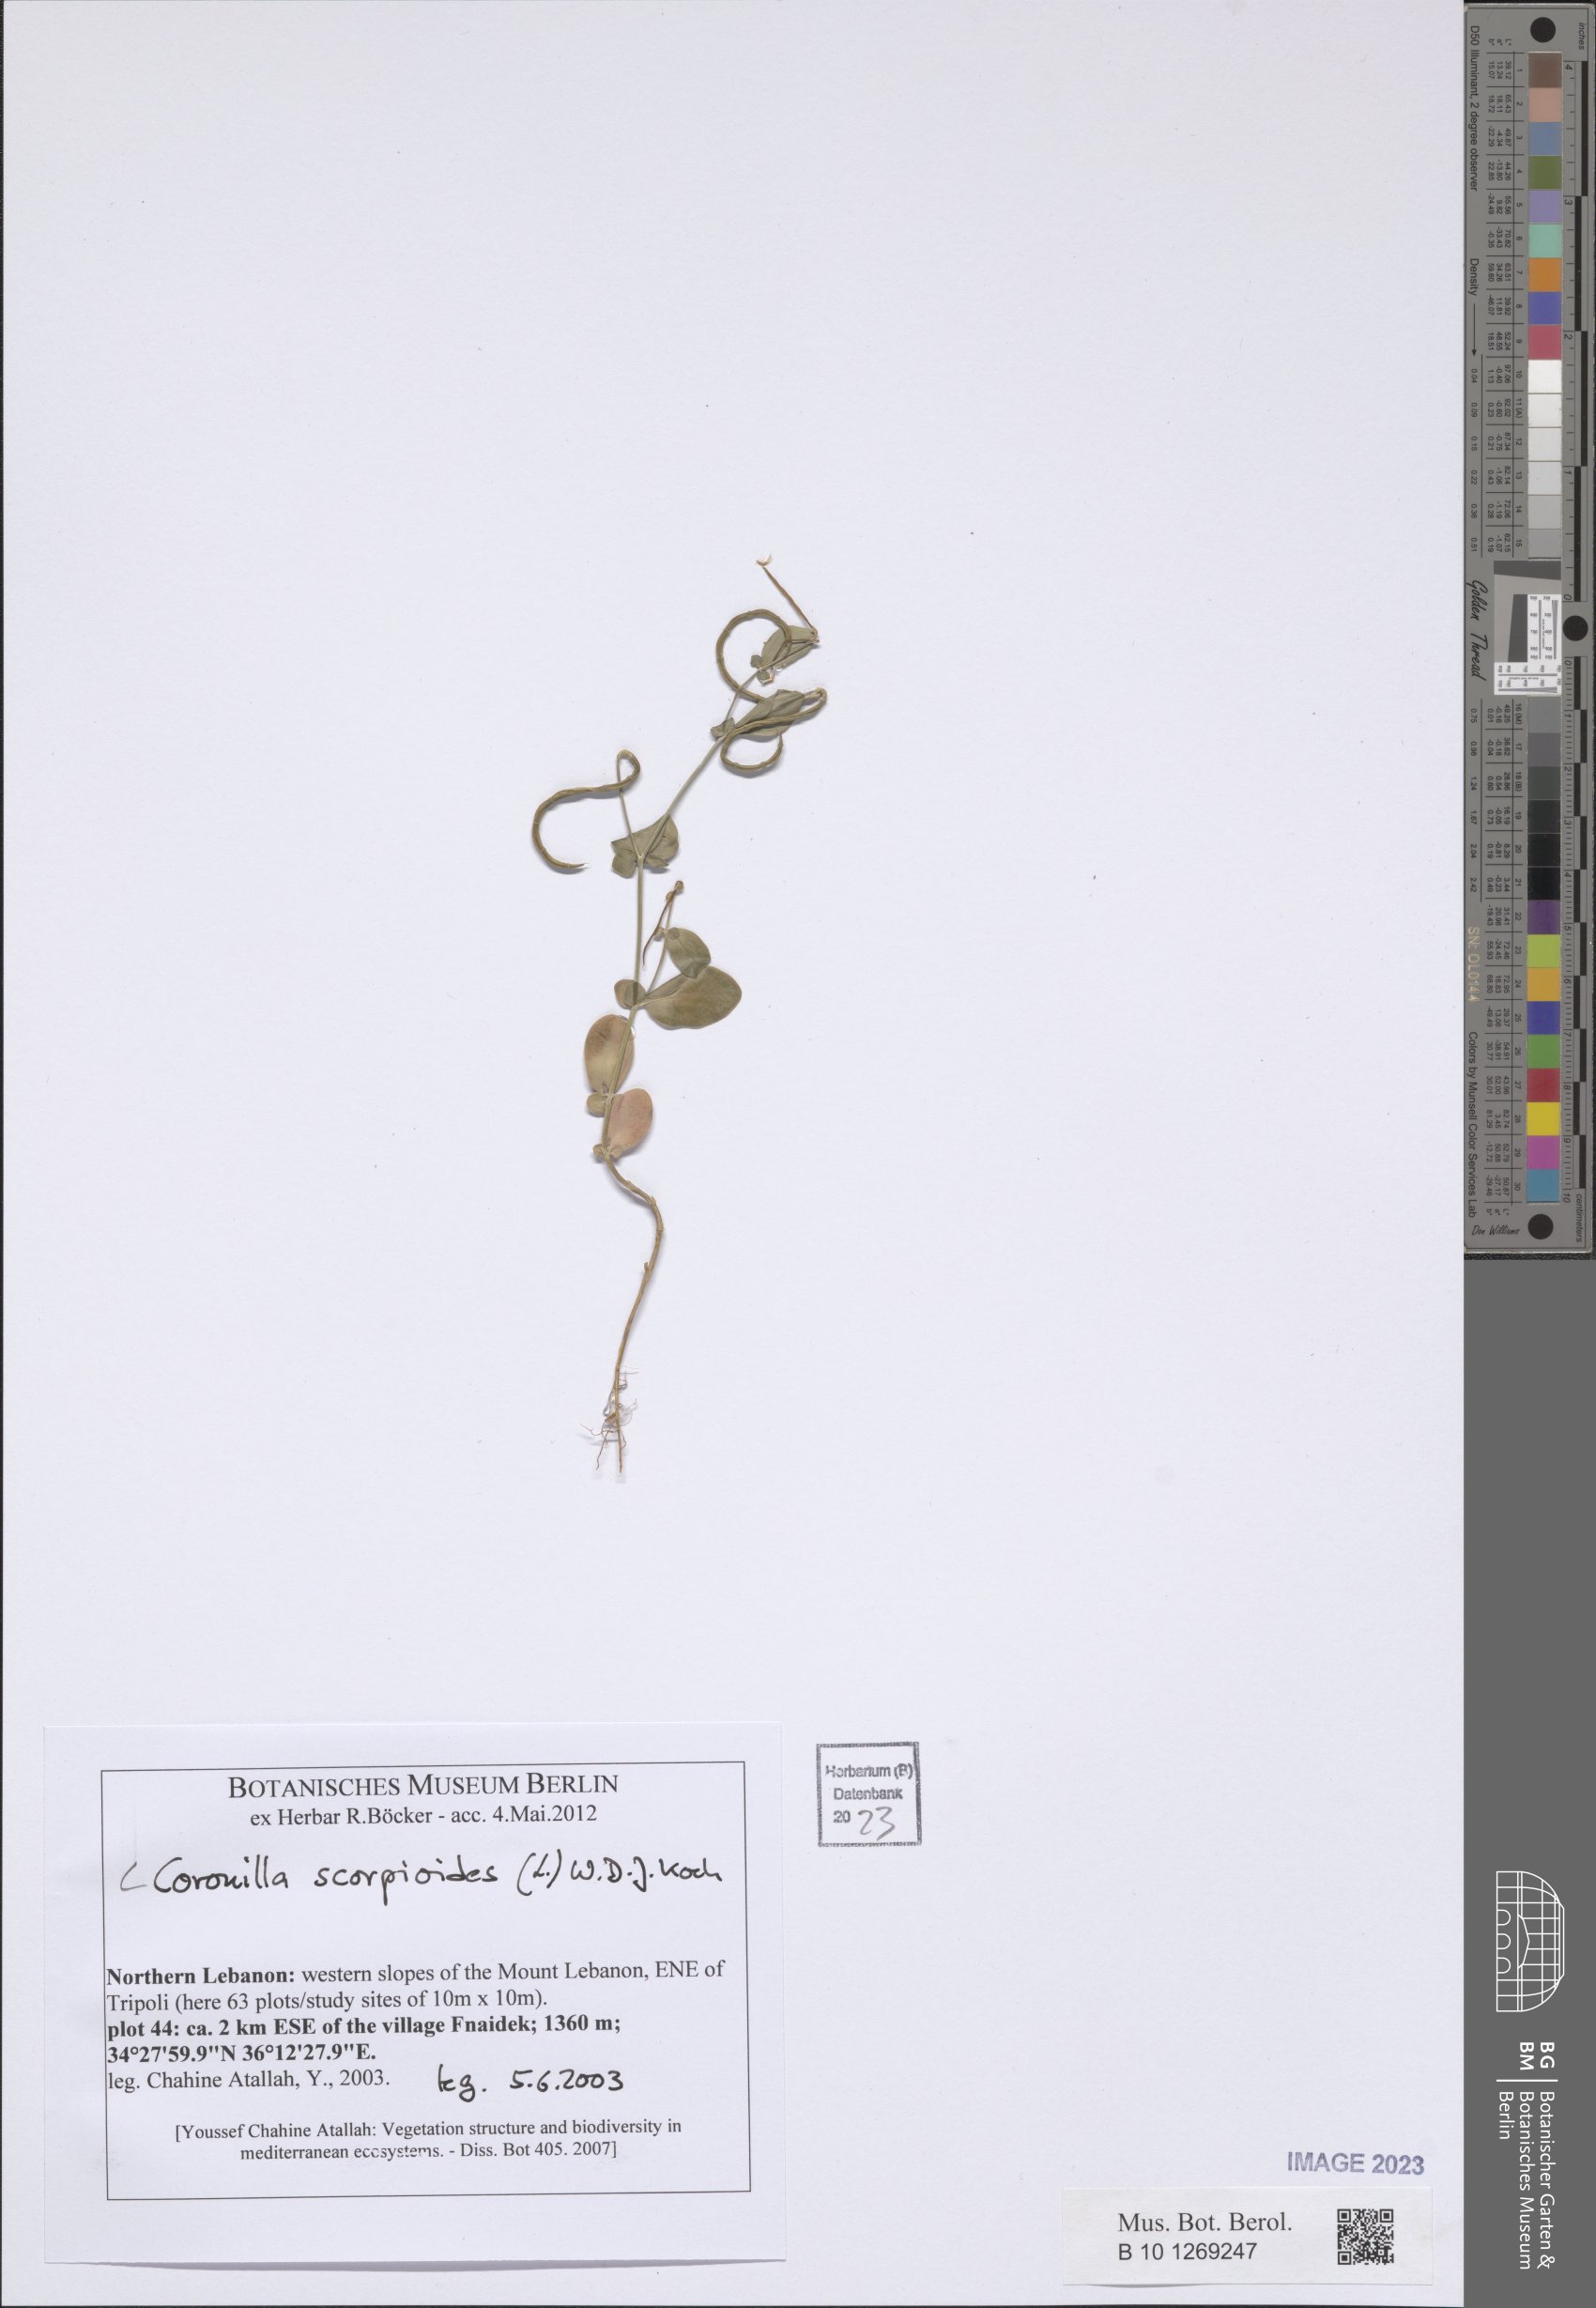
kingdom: Plantae
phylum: Tracheophyta
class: Magnoliopsida
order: Fabales
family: Fabaceae
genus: Coronilla
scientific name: Coronilla scorpioides
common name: Annual scorpion-vetch
